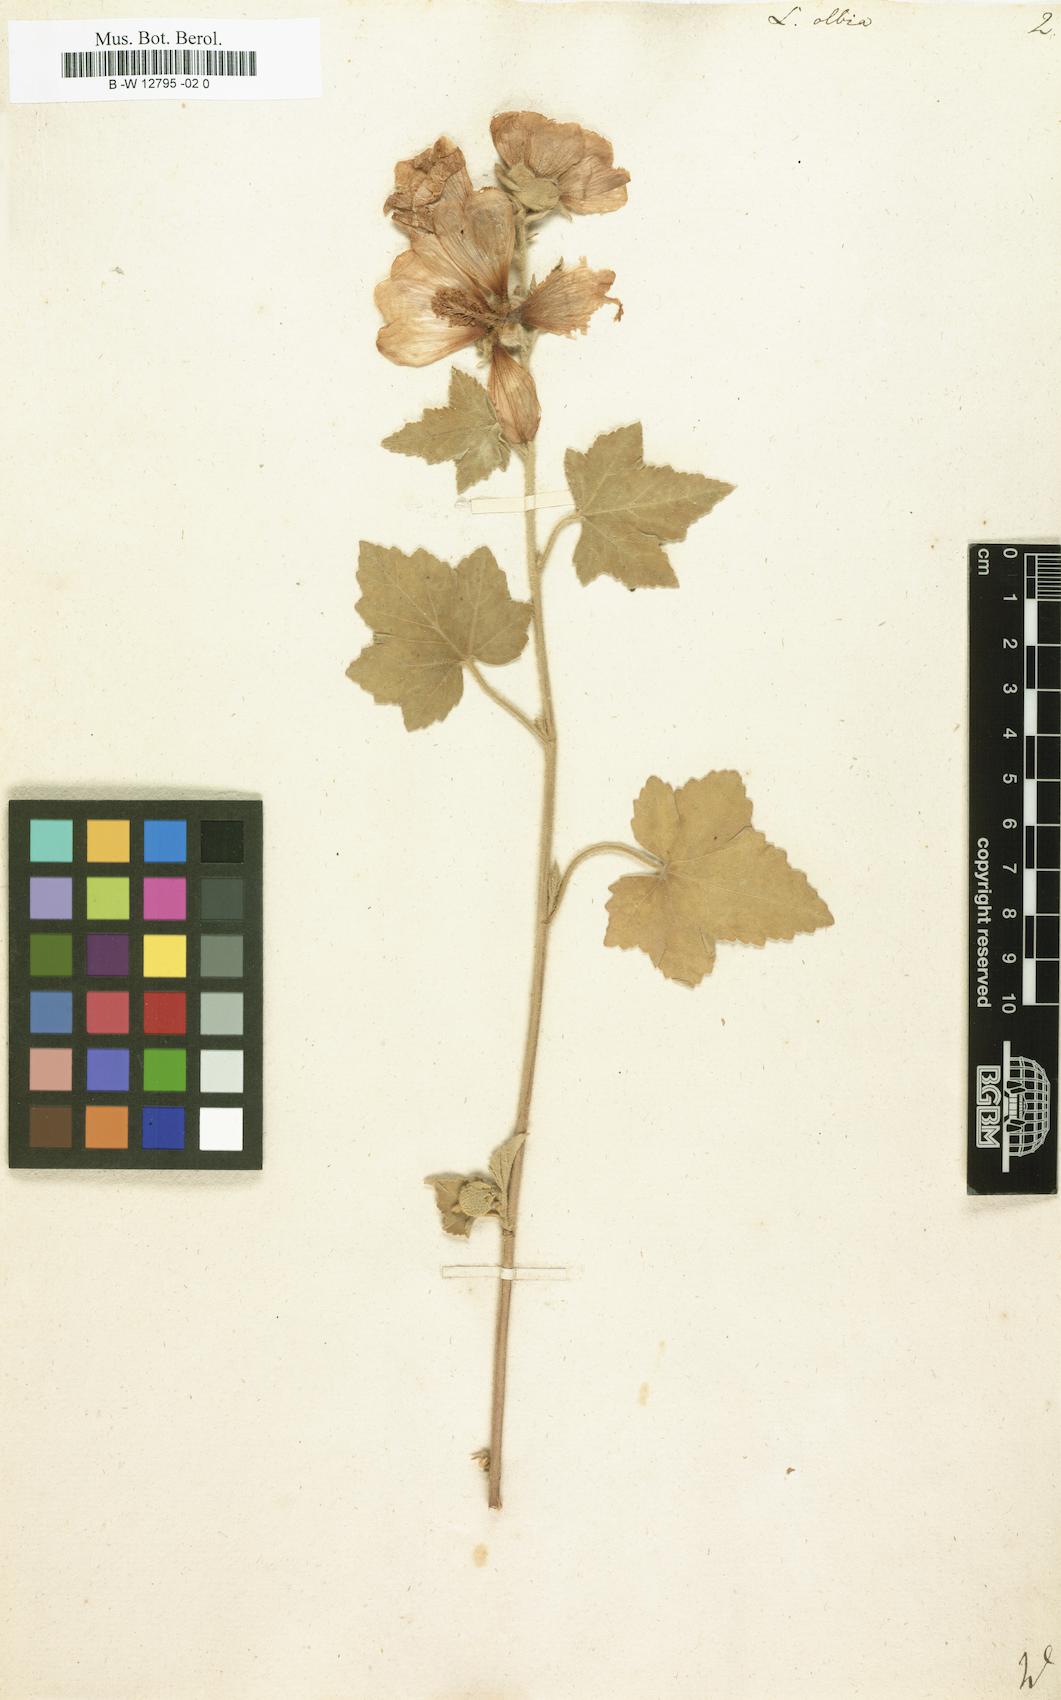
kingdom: Plantae
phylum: Tracheophyta
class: Magnoliopsida
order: Malvales
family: Malvaceae
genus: Malva
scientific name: Malva
